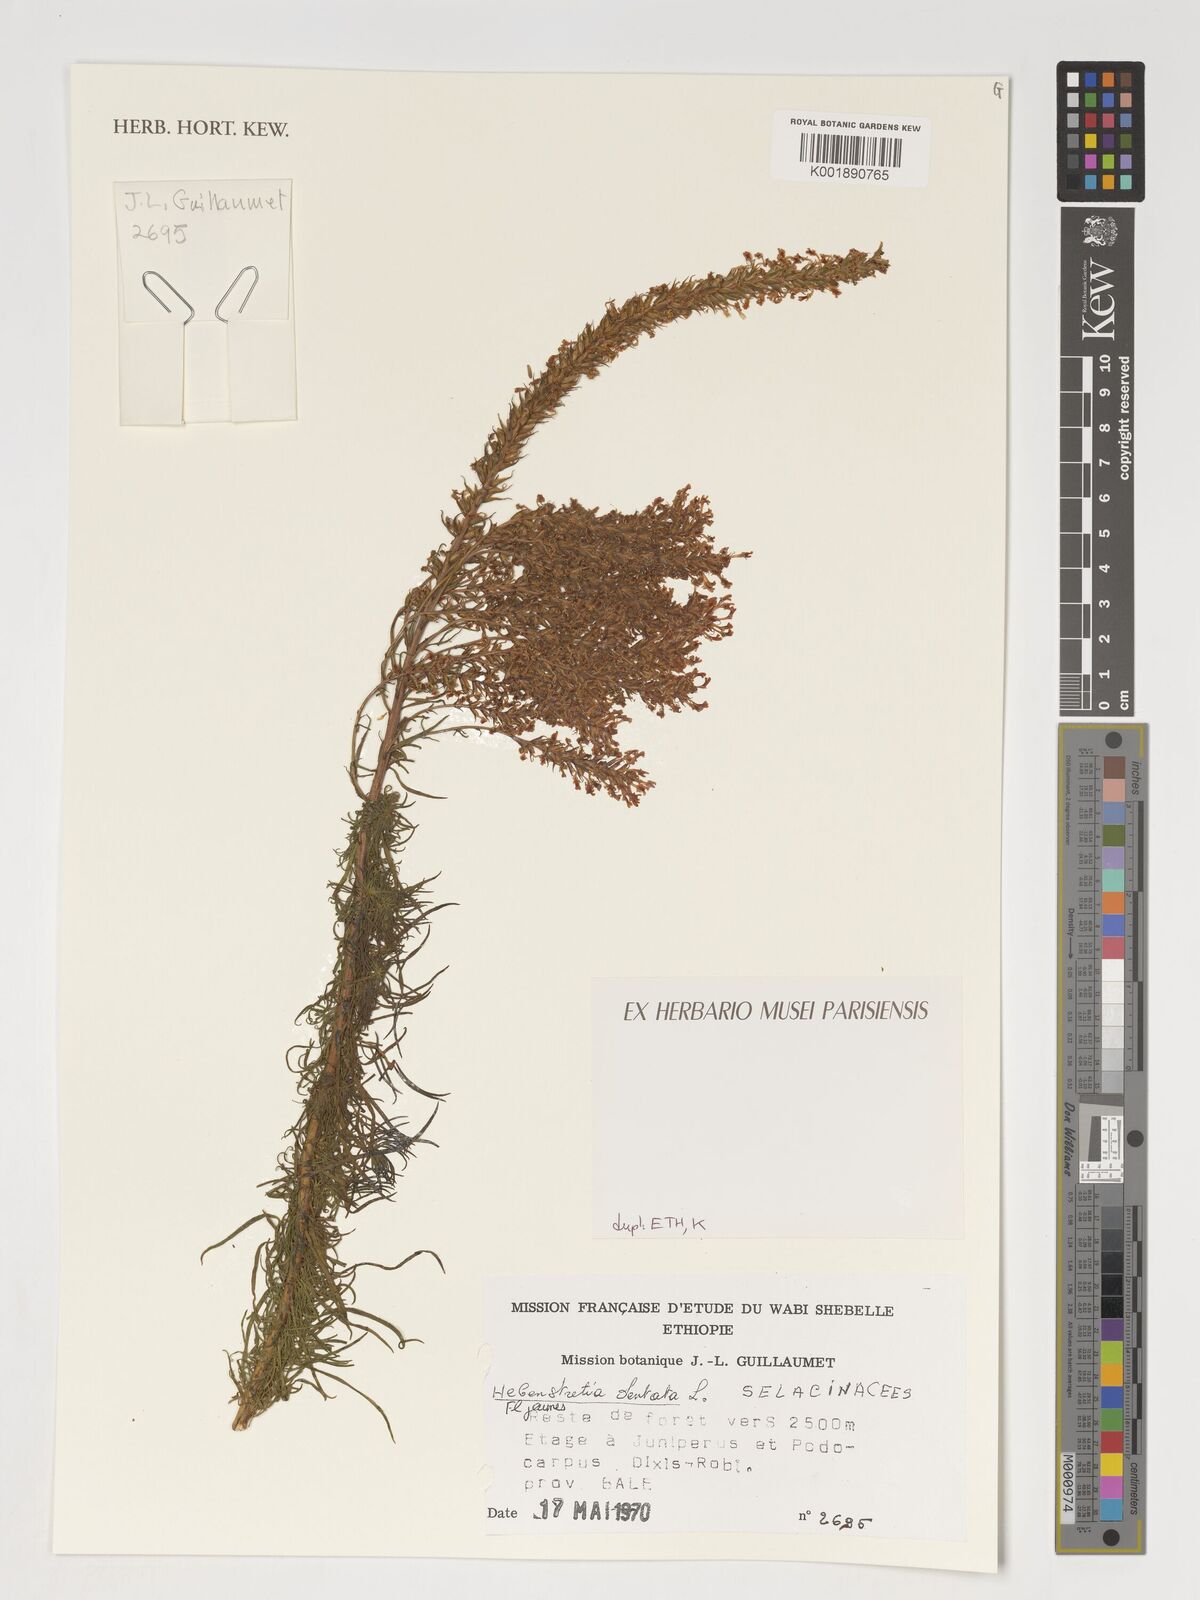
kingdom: Plantae
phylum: Tracheophyta
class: Magnoliopsida
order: Lamiales
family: Scrophulariaceae
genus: Hebenstretia
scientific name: Hebenstretia dentata
